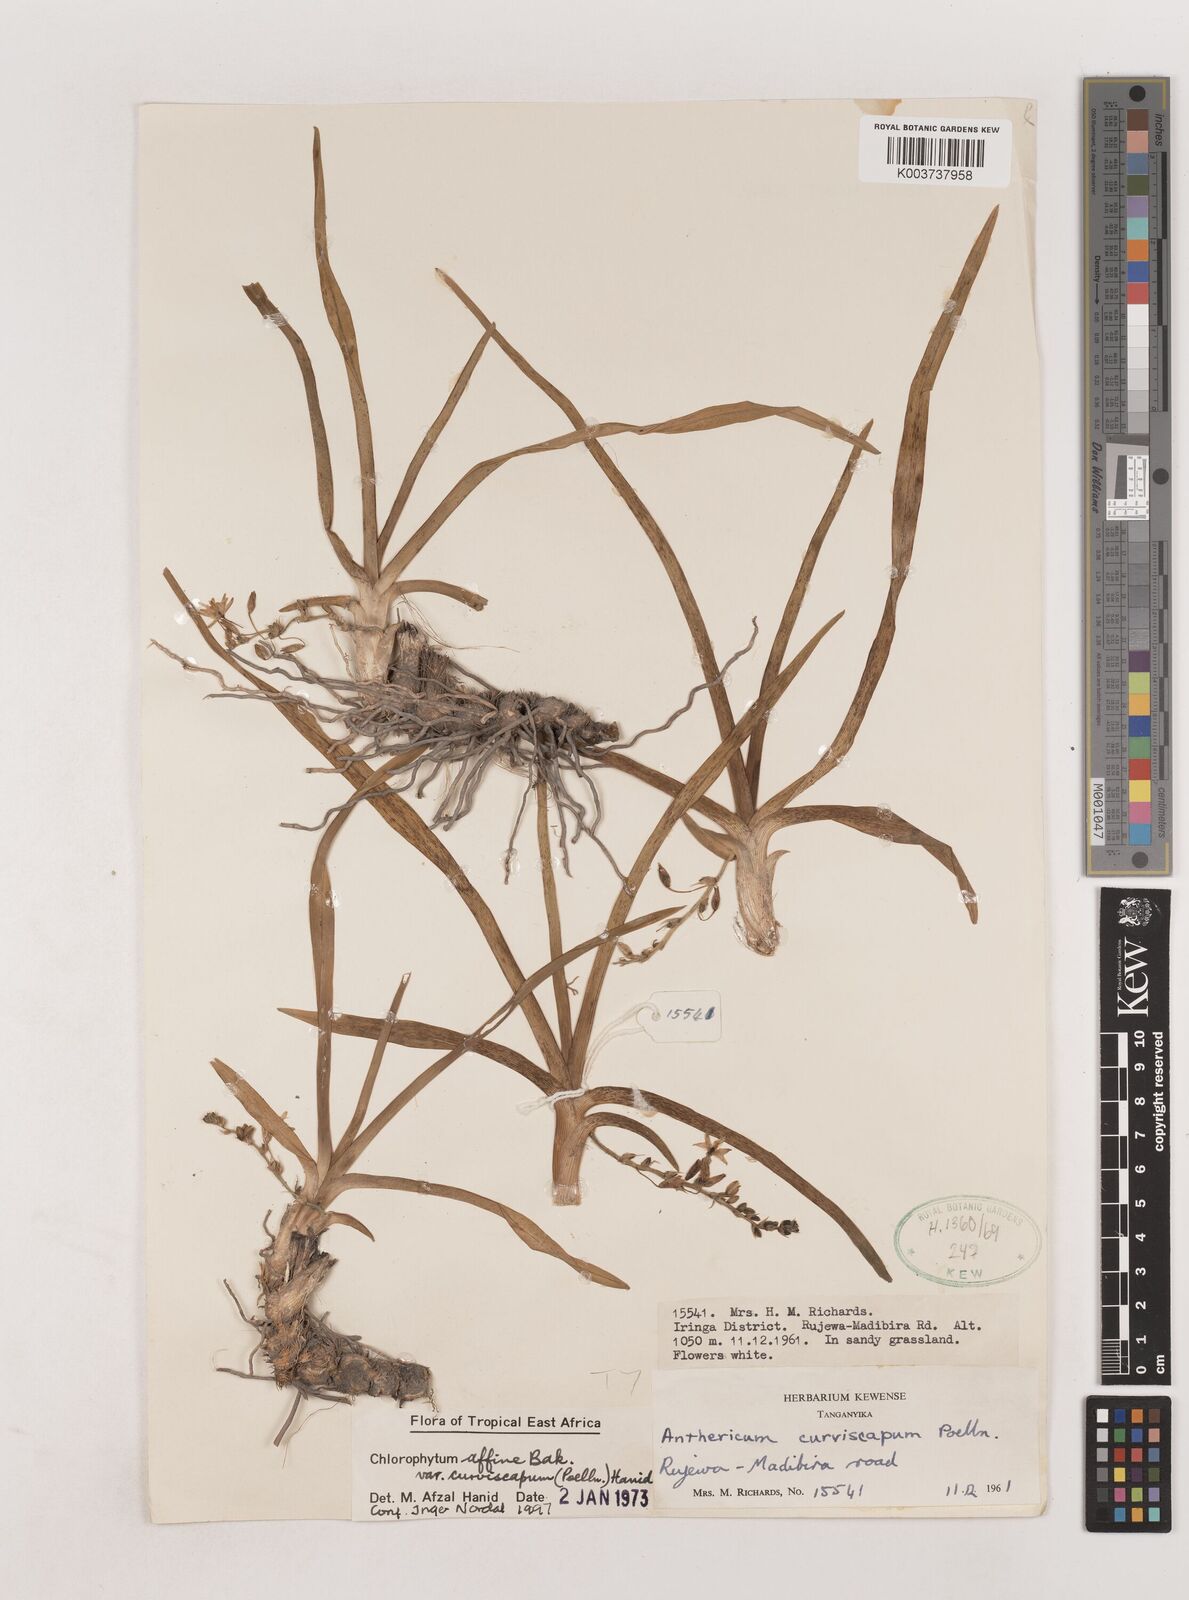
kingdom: Plantae
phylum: Tracheophyta
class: Liliopsida
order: Asparagales
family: Asparagaceae
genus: Chlorophytum
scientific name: Chlorophytum tordense
